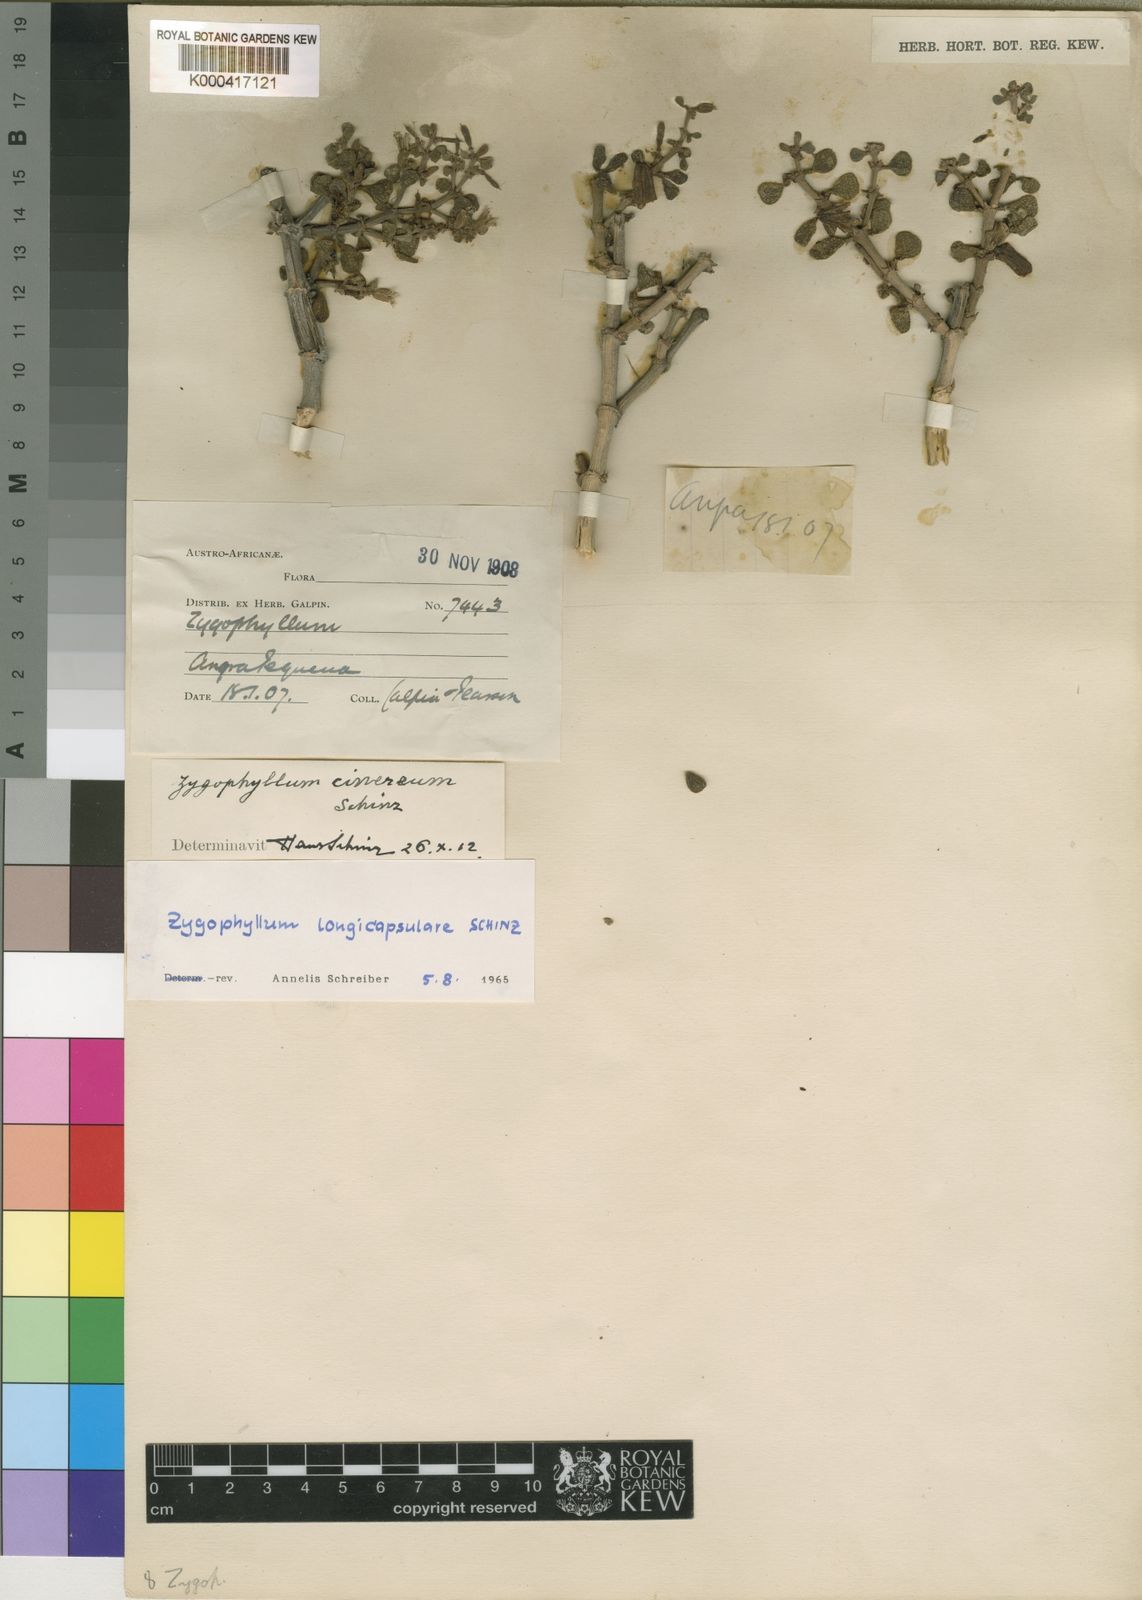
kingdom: Plantae
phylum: Tracheophyta
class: Magnoliopsida
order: Zygophyllales
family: Zygophyllaceae
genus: Tetraena
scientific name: Tetraena longicapsularis
